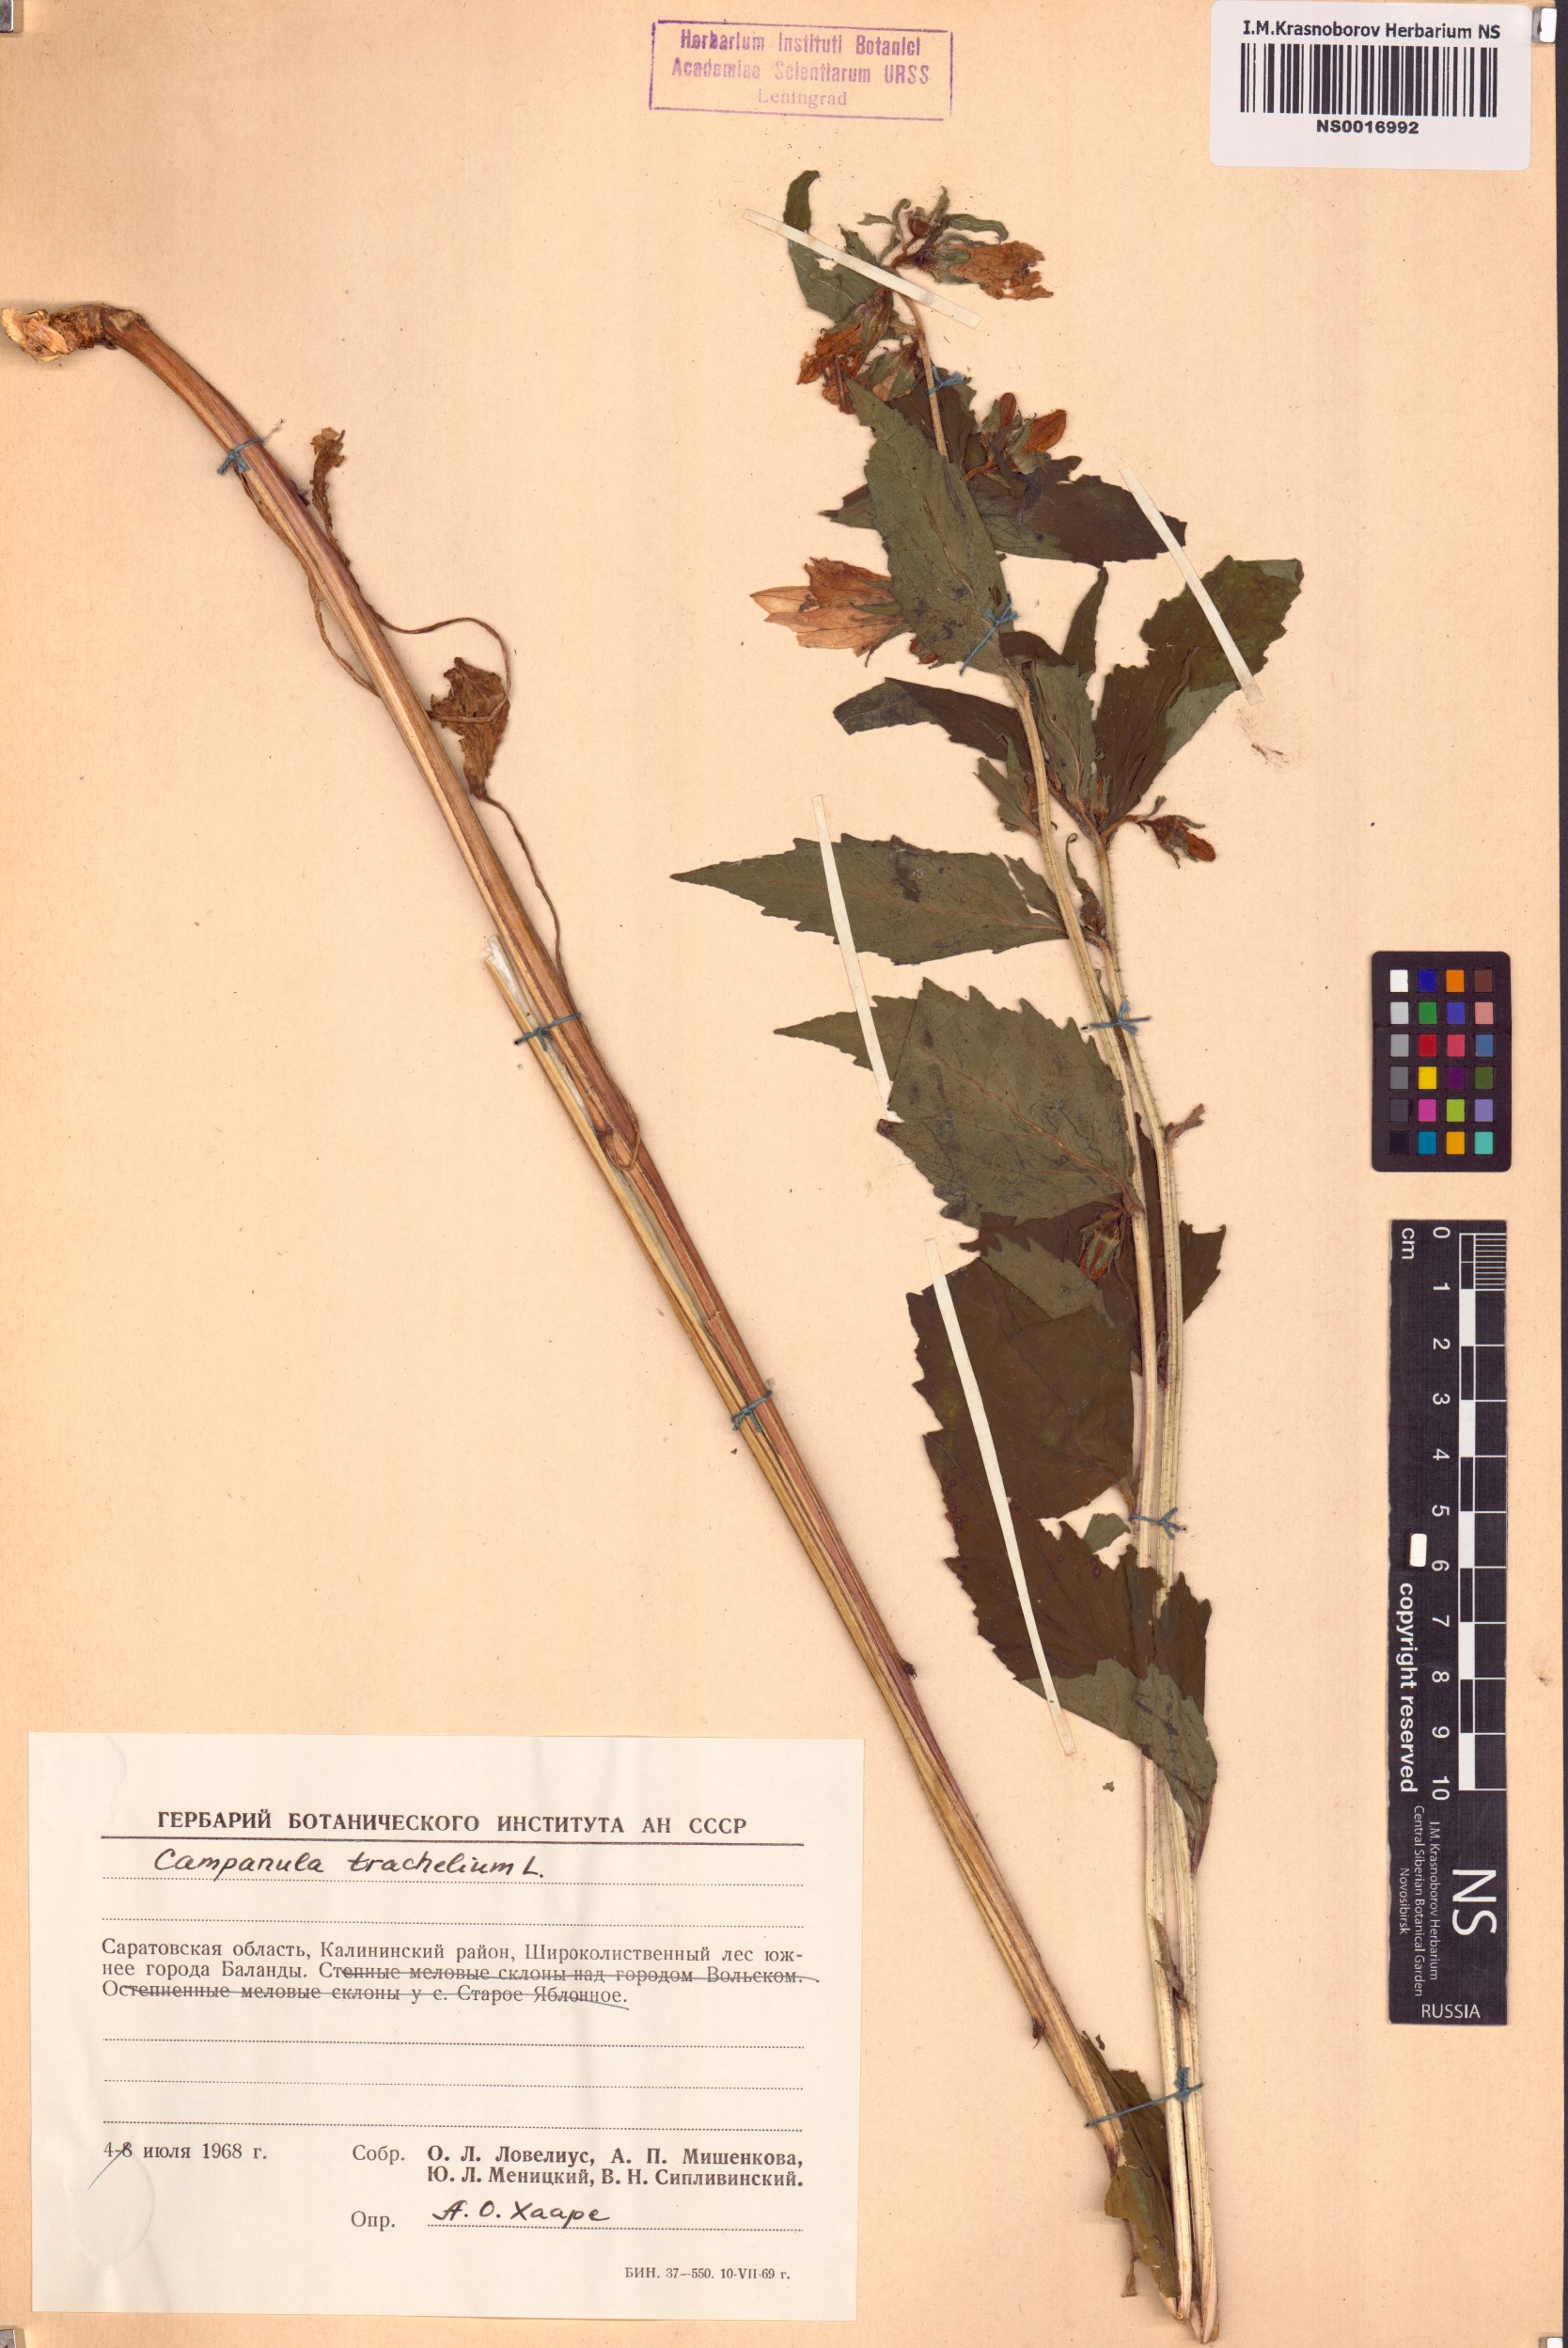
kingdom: Plantae
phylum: Tracheophyta
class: Magnoliopsida
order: Asterales
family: Campanulaceae
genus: Campanula
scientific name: Campanula trachelium
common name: Nettle-leaved bellflower
